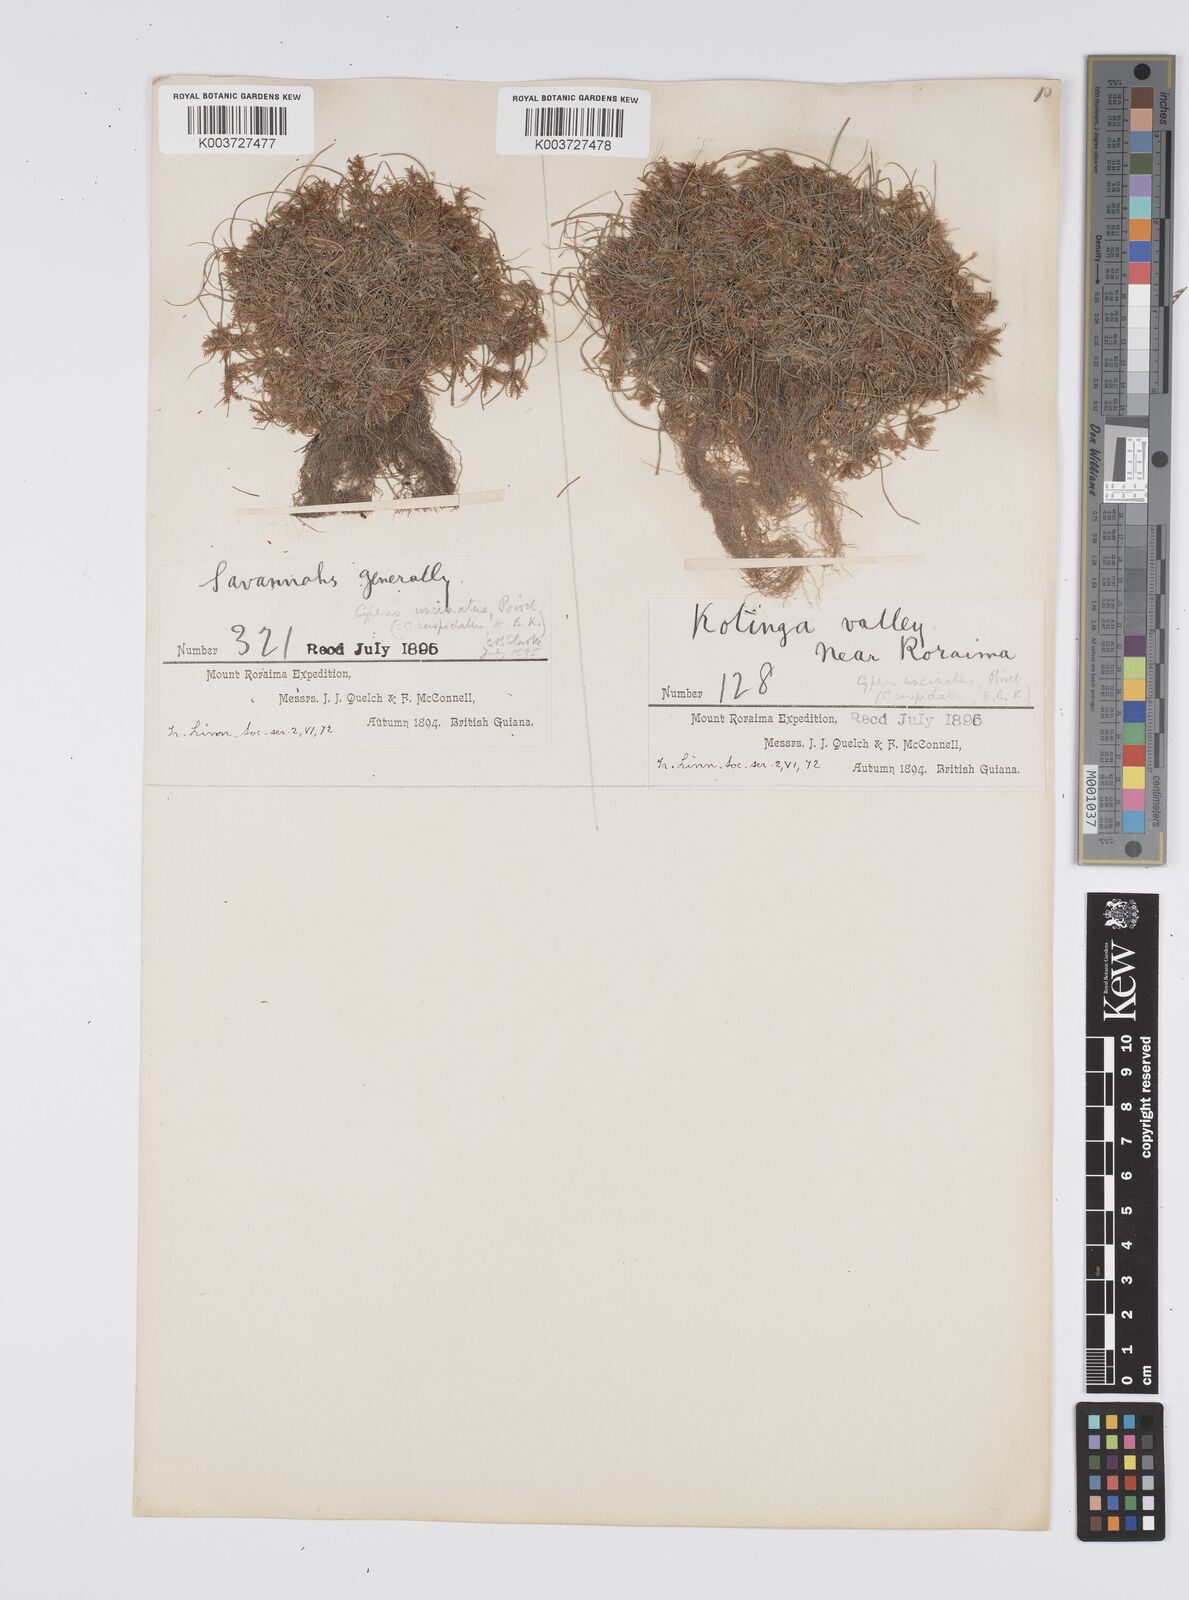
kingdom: Plantae
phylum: Tracheophyta
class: Liliopsida
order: Poales
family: Cyperaceae
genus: Cyperus
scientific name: Cyperus cuspidatus
